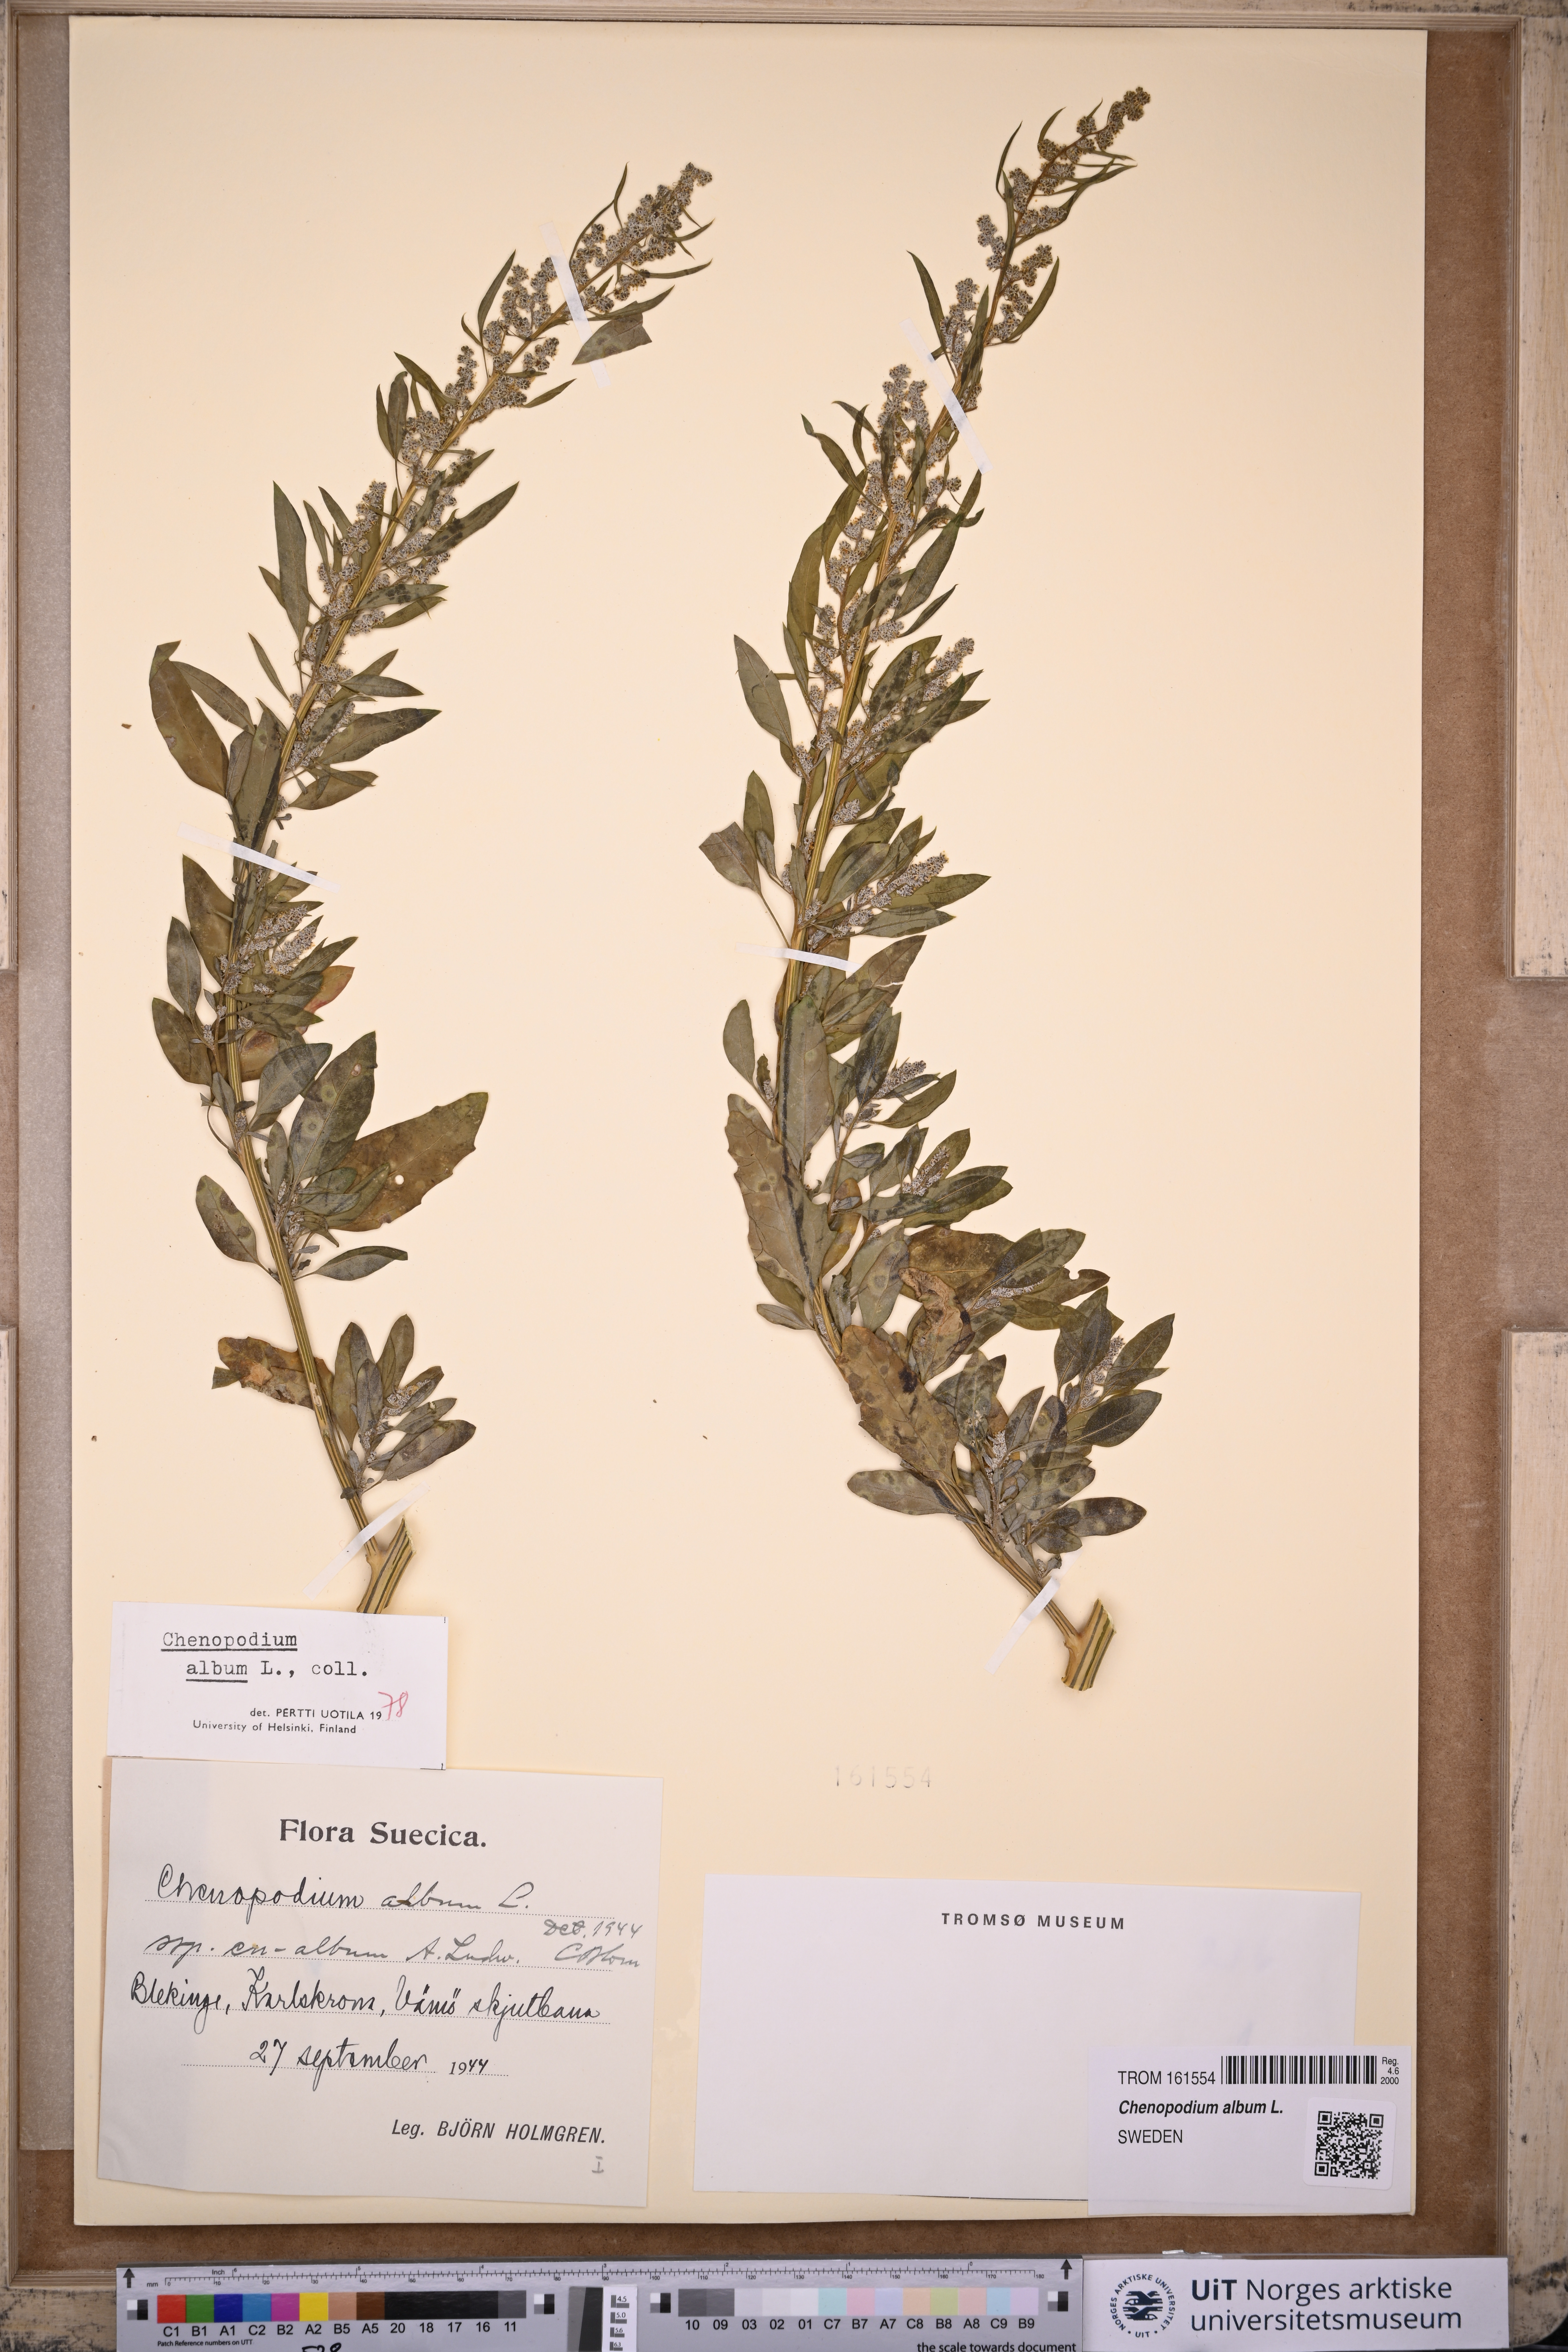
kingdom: Plantae
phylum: Tracheophyta
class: Magnoliopsida
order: Caryophyllales
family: Amaranthaceae
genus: Chenopodium
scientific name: Chenopodium album
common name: Fat-hen
